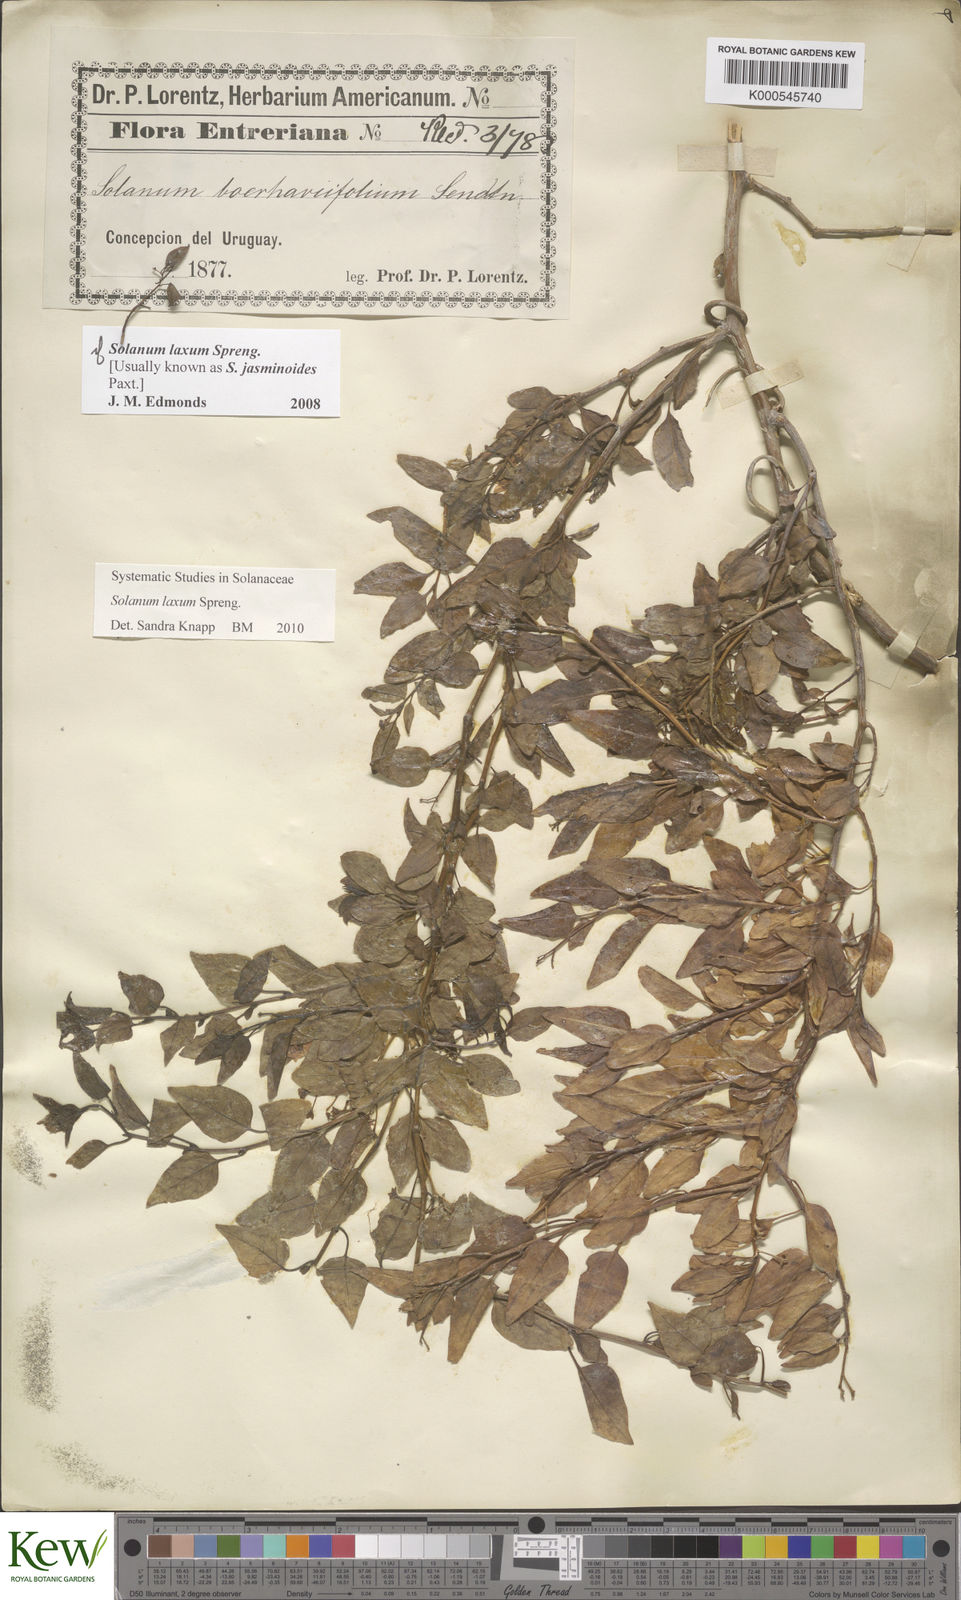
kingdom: Plantae
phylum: Tracheophyta
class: Magnoliopsida
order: Solanales
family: Solanaceae
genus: Solanum
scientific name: Solanum laxum
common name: Nightshade
